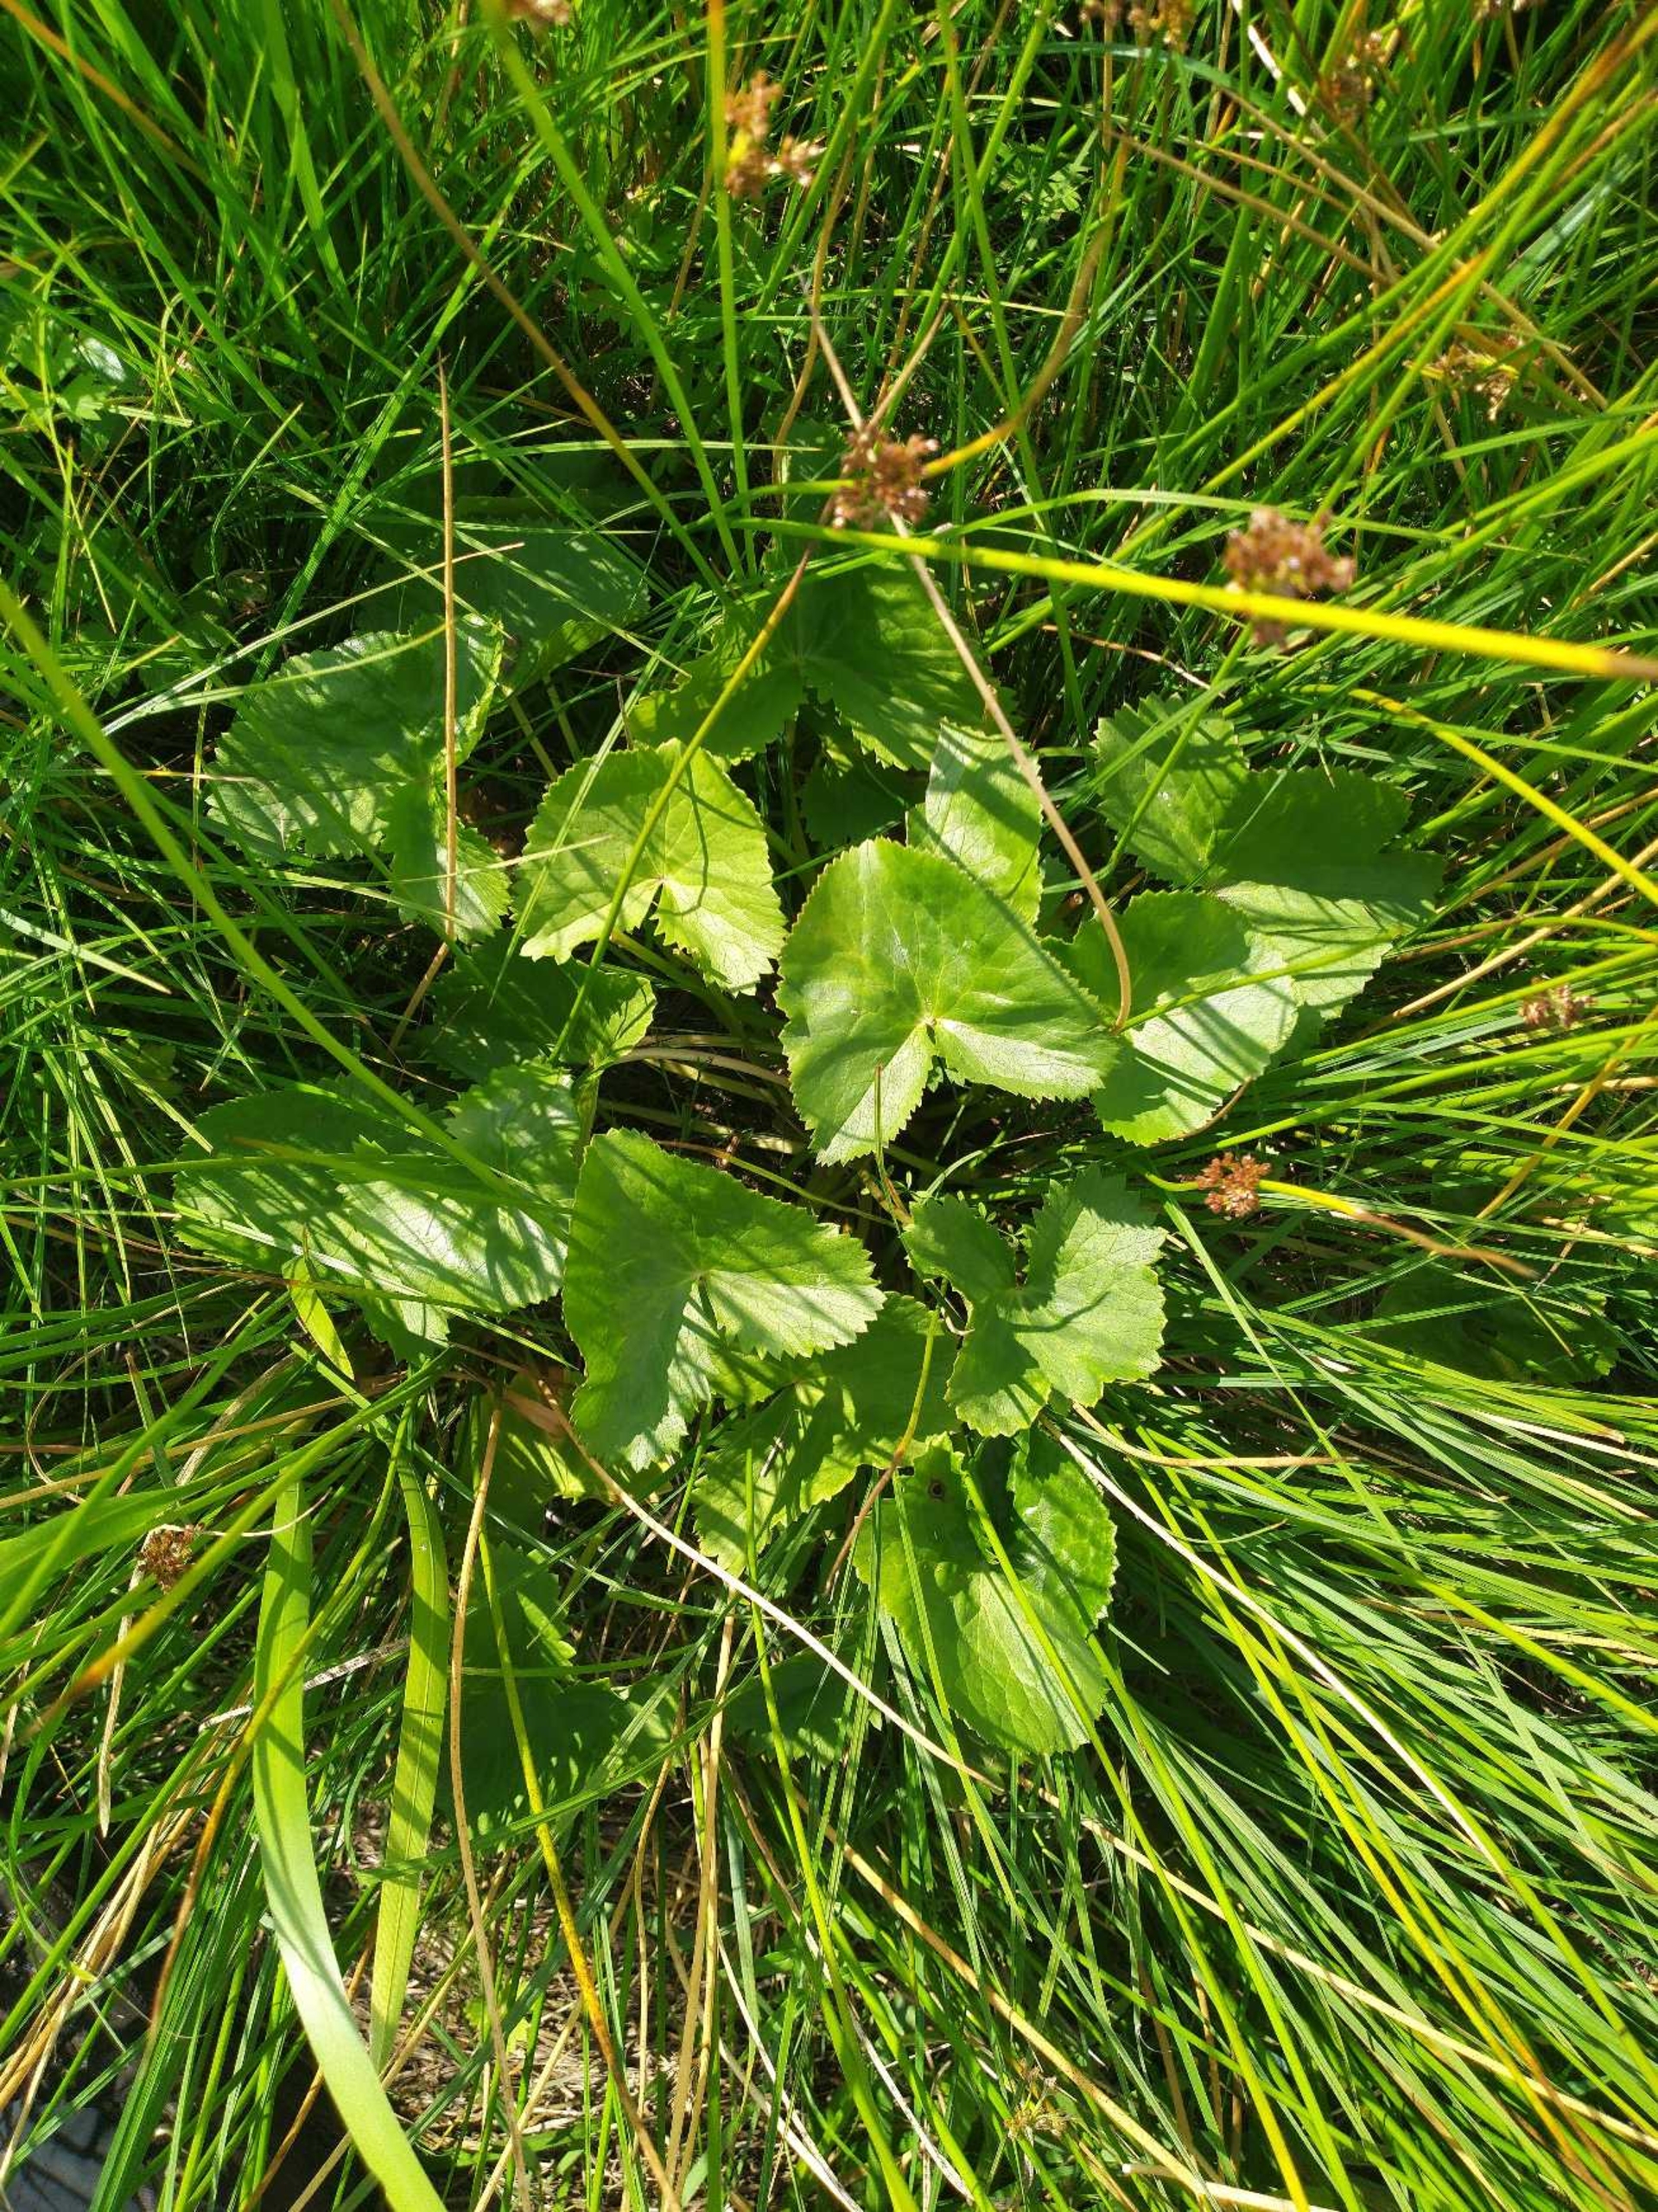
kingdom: Plantae
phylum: Tracheophyta
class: Magnoliopsida
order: Ranunculales
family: Ranunculaceae
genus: Caltha
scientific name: Caltha palustris
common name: Eng-kabbeleje
